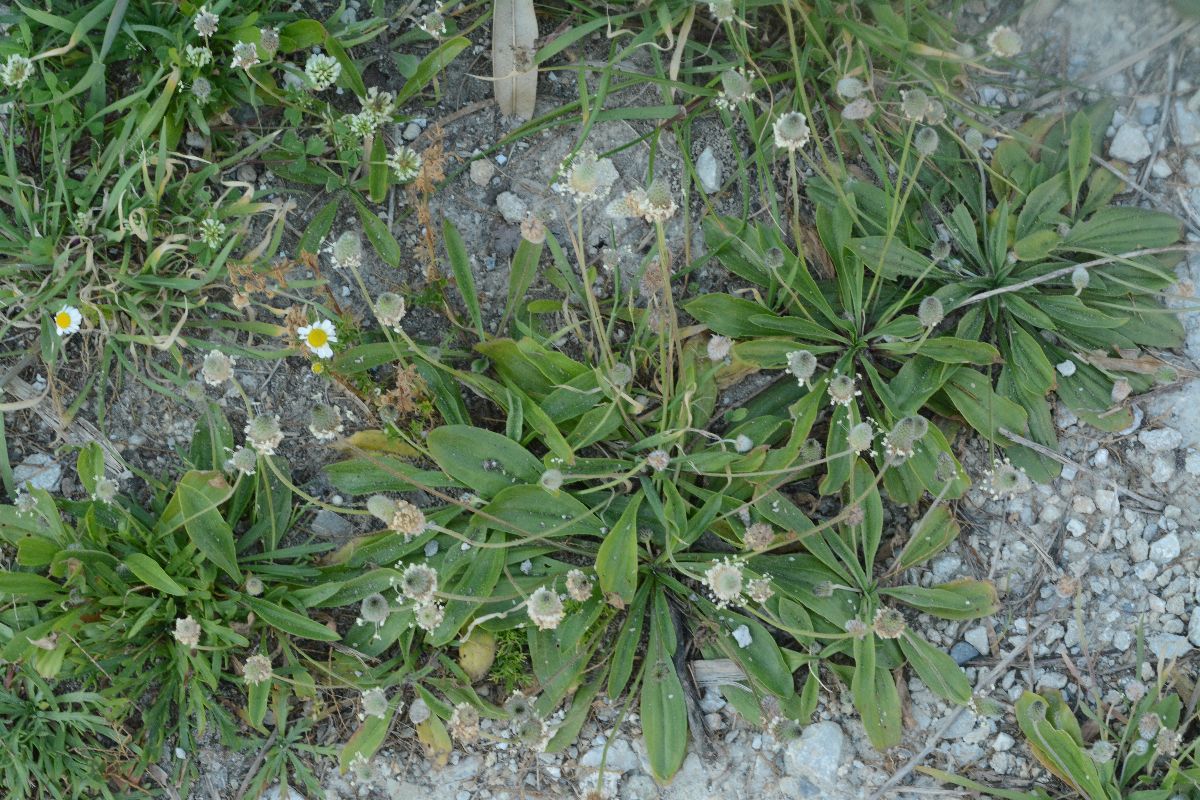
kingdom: Plantae
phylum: Tracheophyta
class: Magnoliopsida
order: Lamiales
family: Plantaginaceae
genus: Plantago
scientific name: Plantago lagopus
